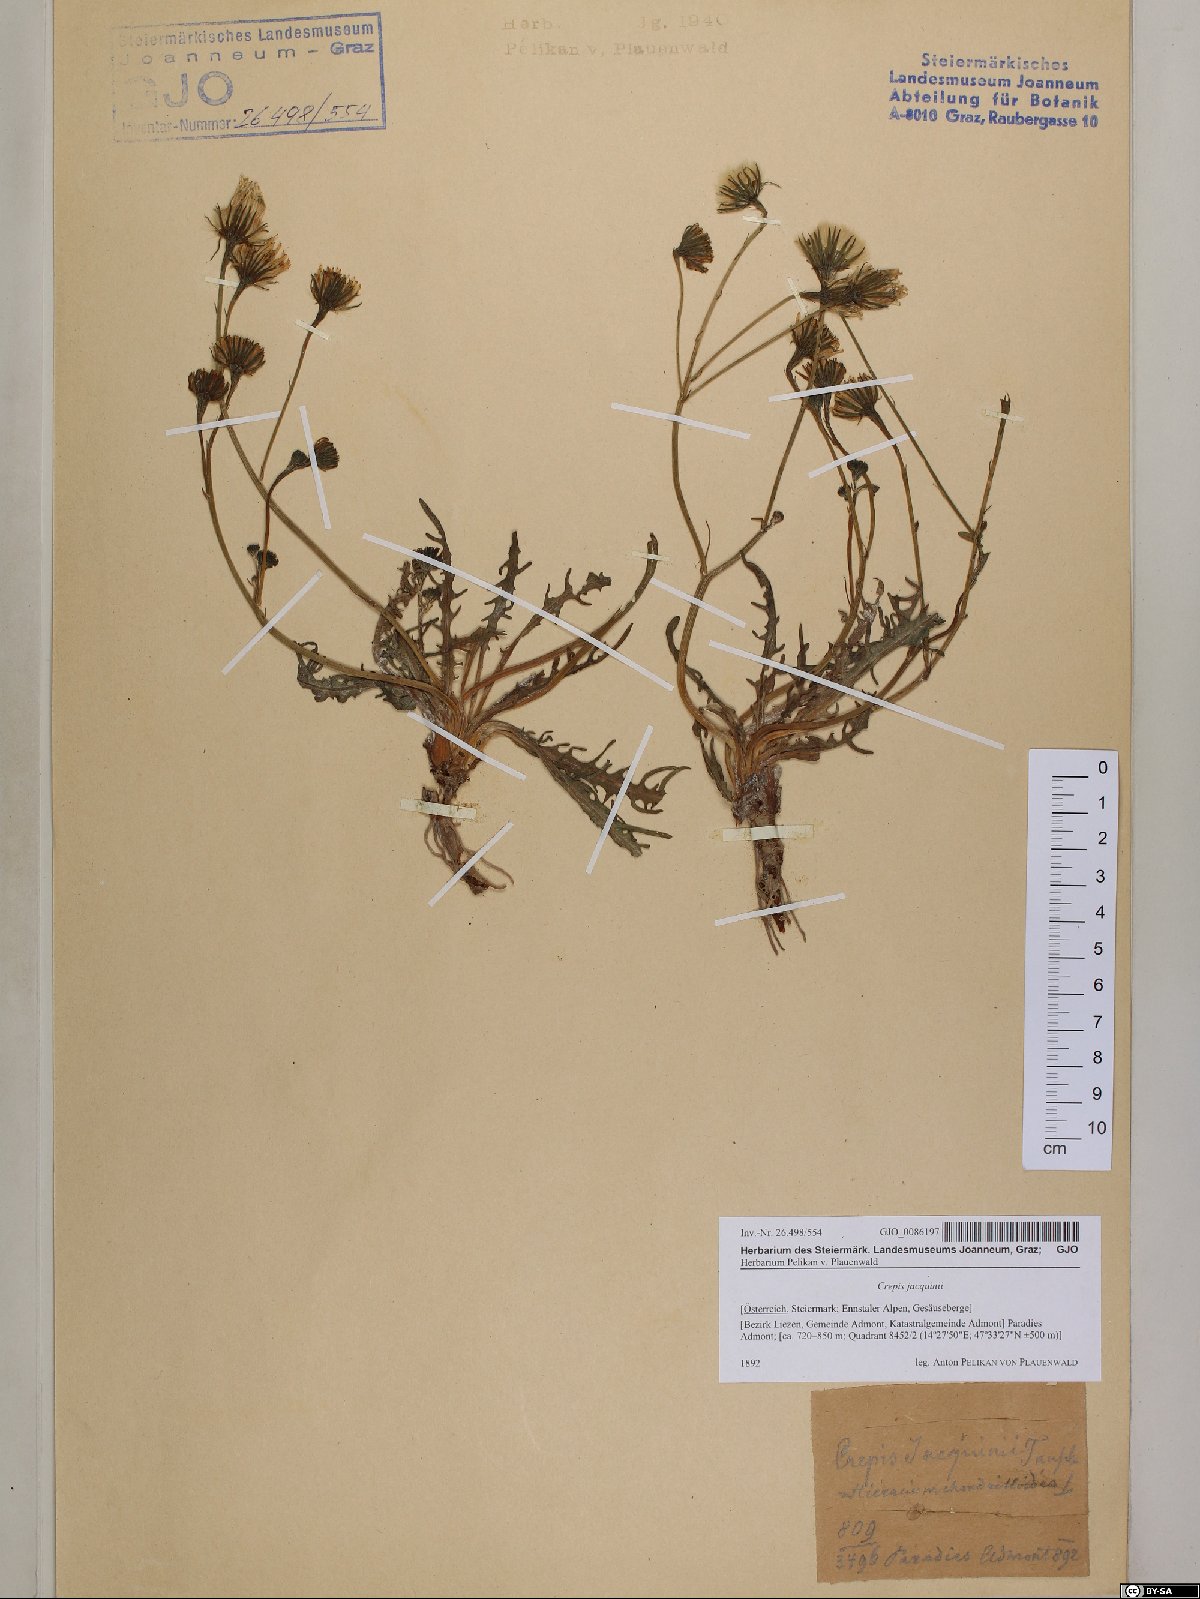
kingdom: Plantae
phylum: Tracheophyta
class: Magnoliopsida
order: Asterales
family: Asteraceae
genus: Crepis
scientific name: Crepis jacquinii
